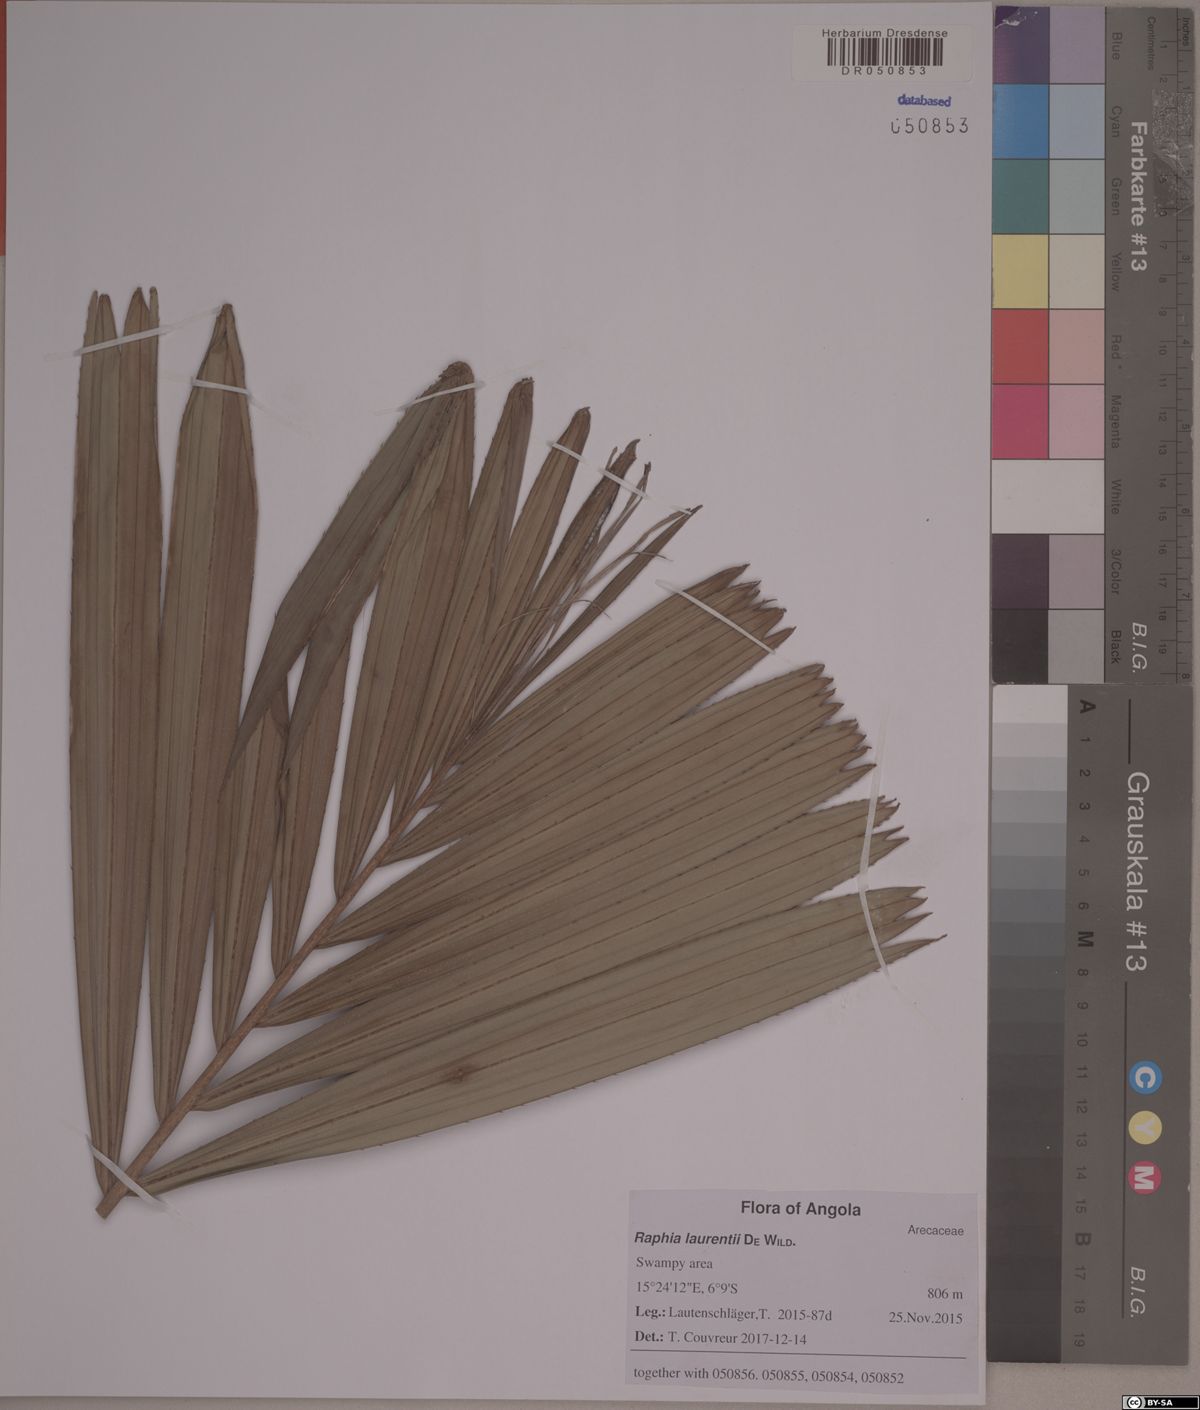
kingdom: Plantae
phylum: Tracheophyta
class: Liliopsida
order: Arecales
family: Arecaceae
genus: Raphia
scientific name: Raphia laurentii
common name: Raphia palm
